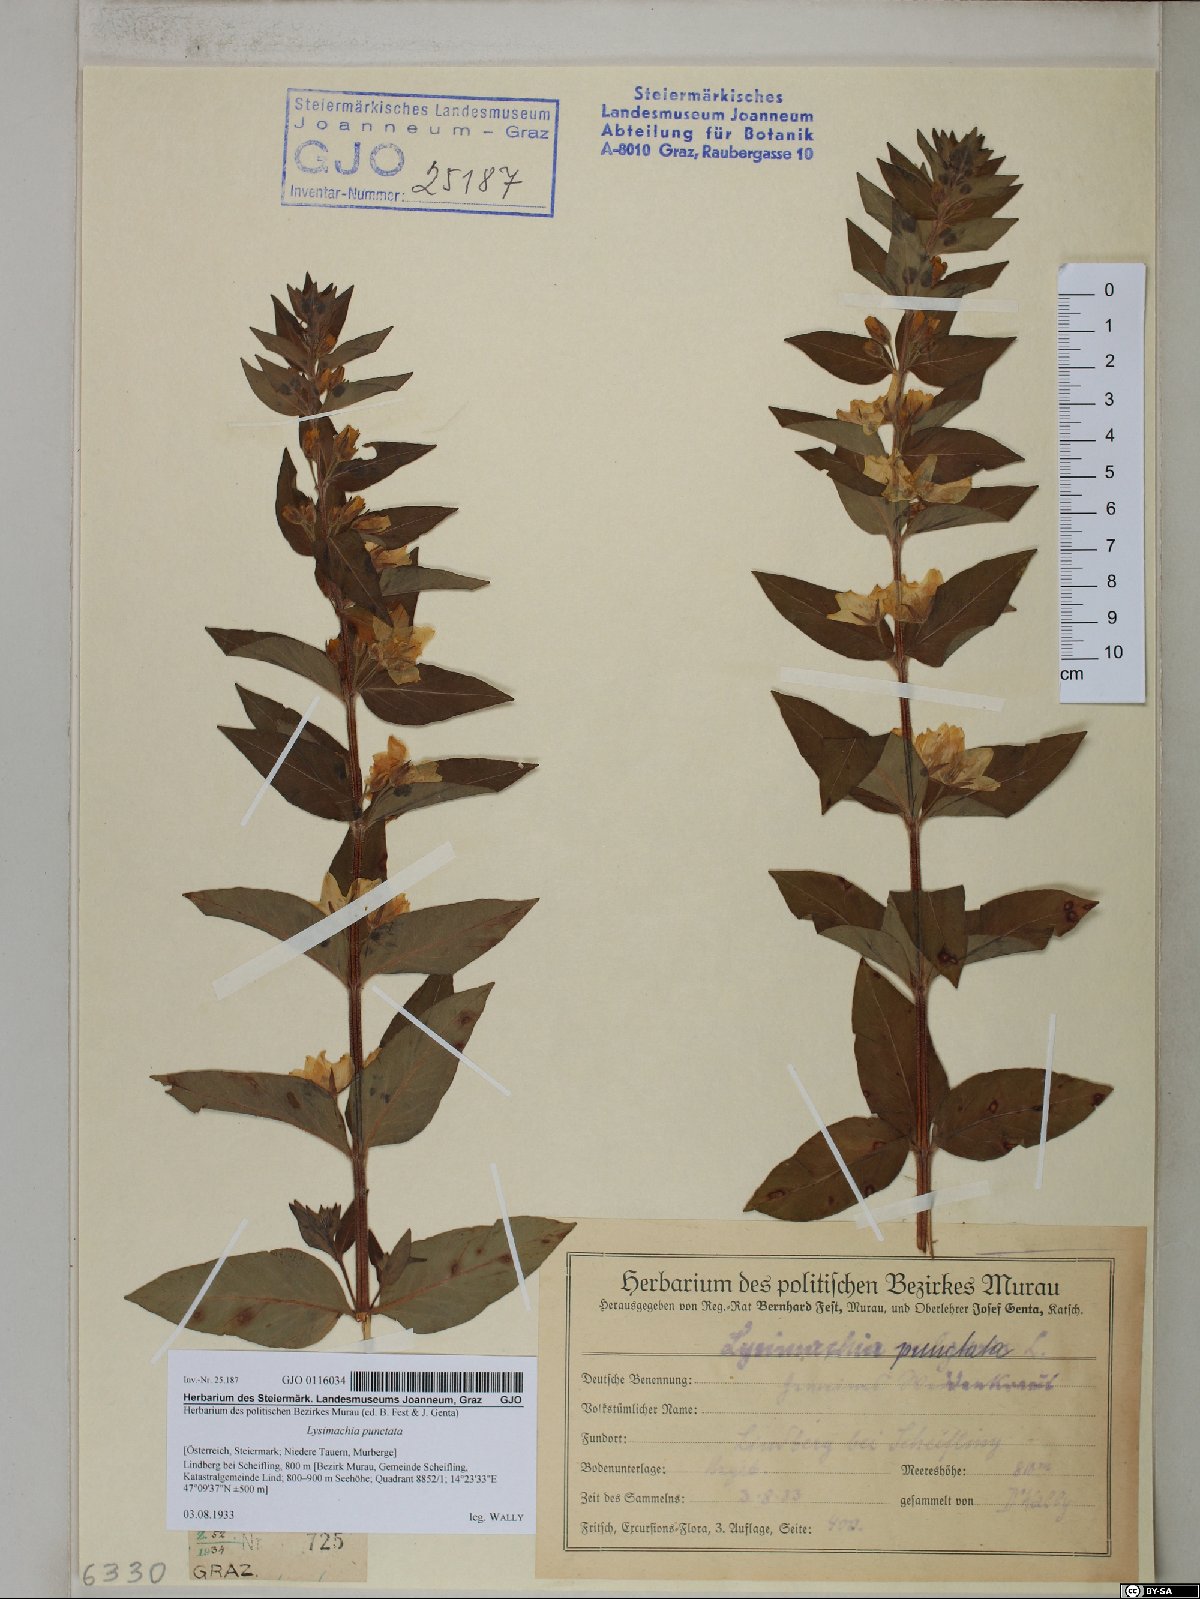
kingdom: Plantae
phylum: Tracheophyta
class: Magnoliopsida
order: Ericales
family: Primulaceae
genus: Lysimachia
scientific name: Lysimachia punctata
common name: Dotted loosestrife
